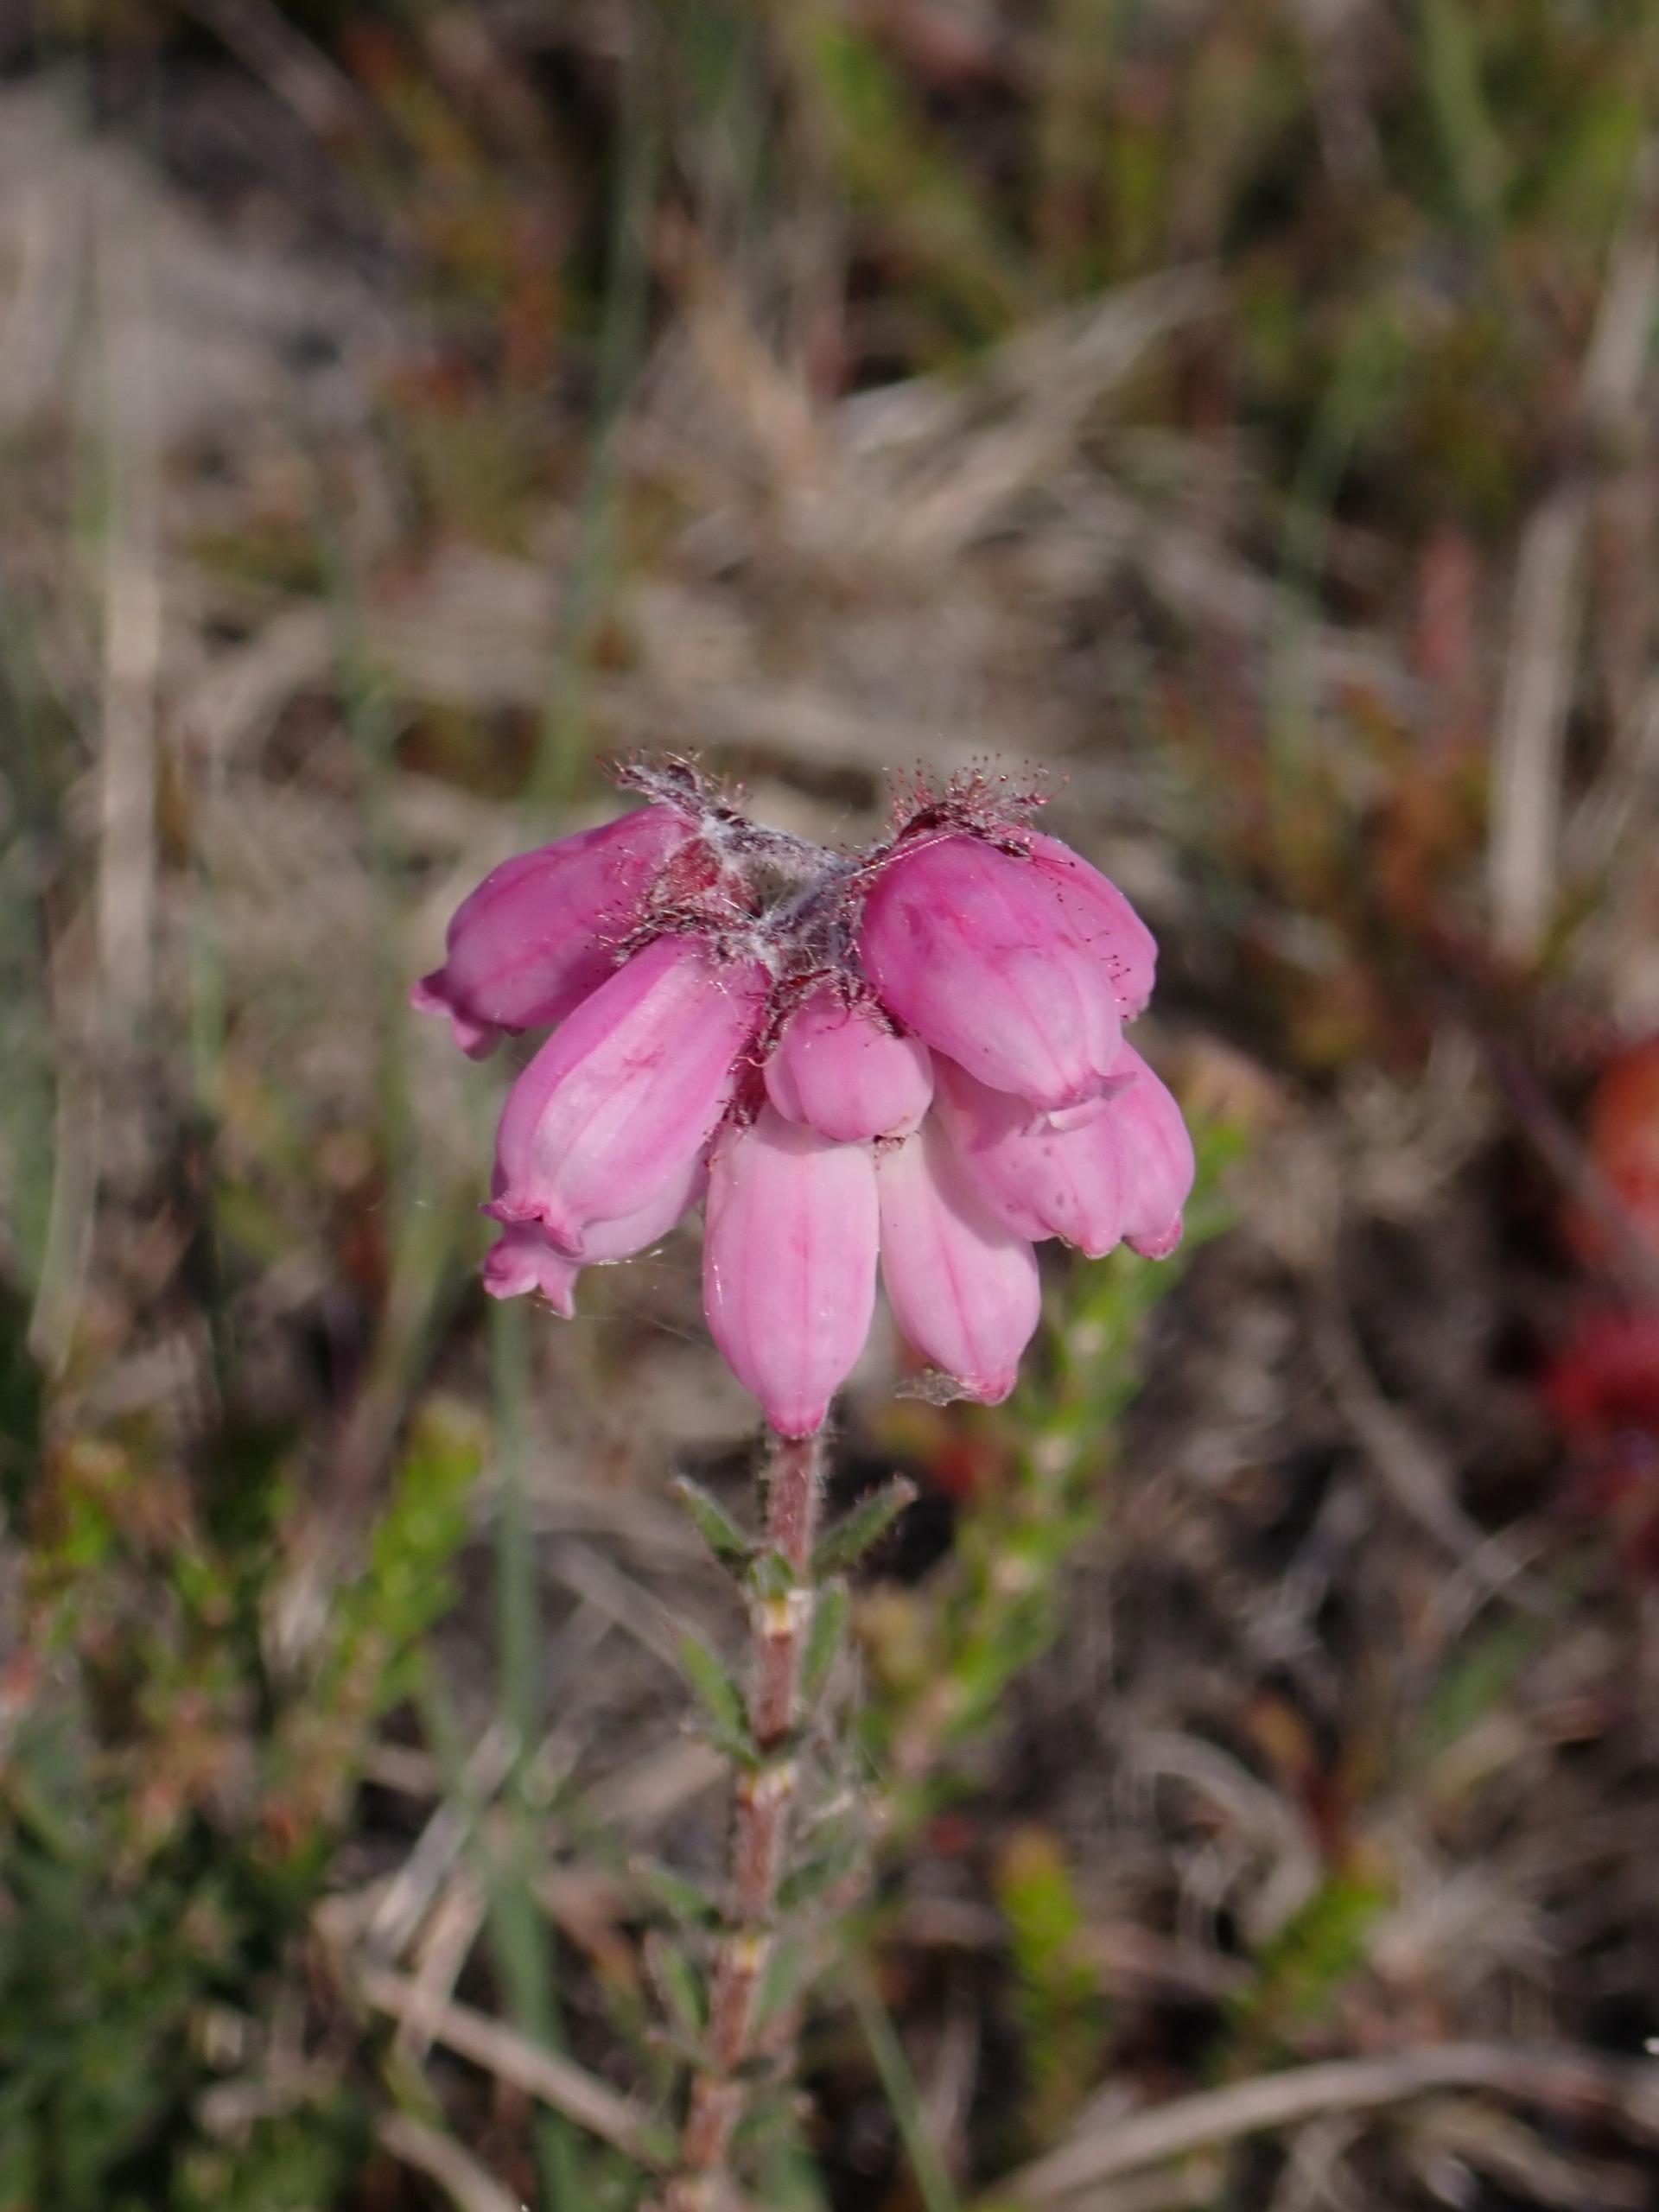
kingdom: Plantae
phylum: Tracheophyta
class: Magnoliopsida
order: Ericales
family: Ericaceae
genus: Erica
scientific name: Erica tetralix
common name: Klokkelyng
